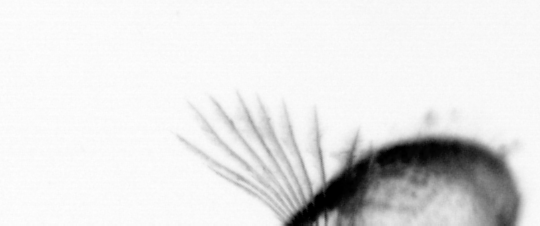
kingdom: Animalia
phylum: Arthropoda
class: Copepoda
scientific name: Copepoda
